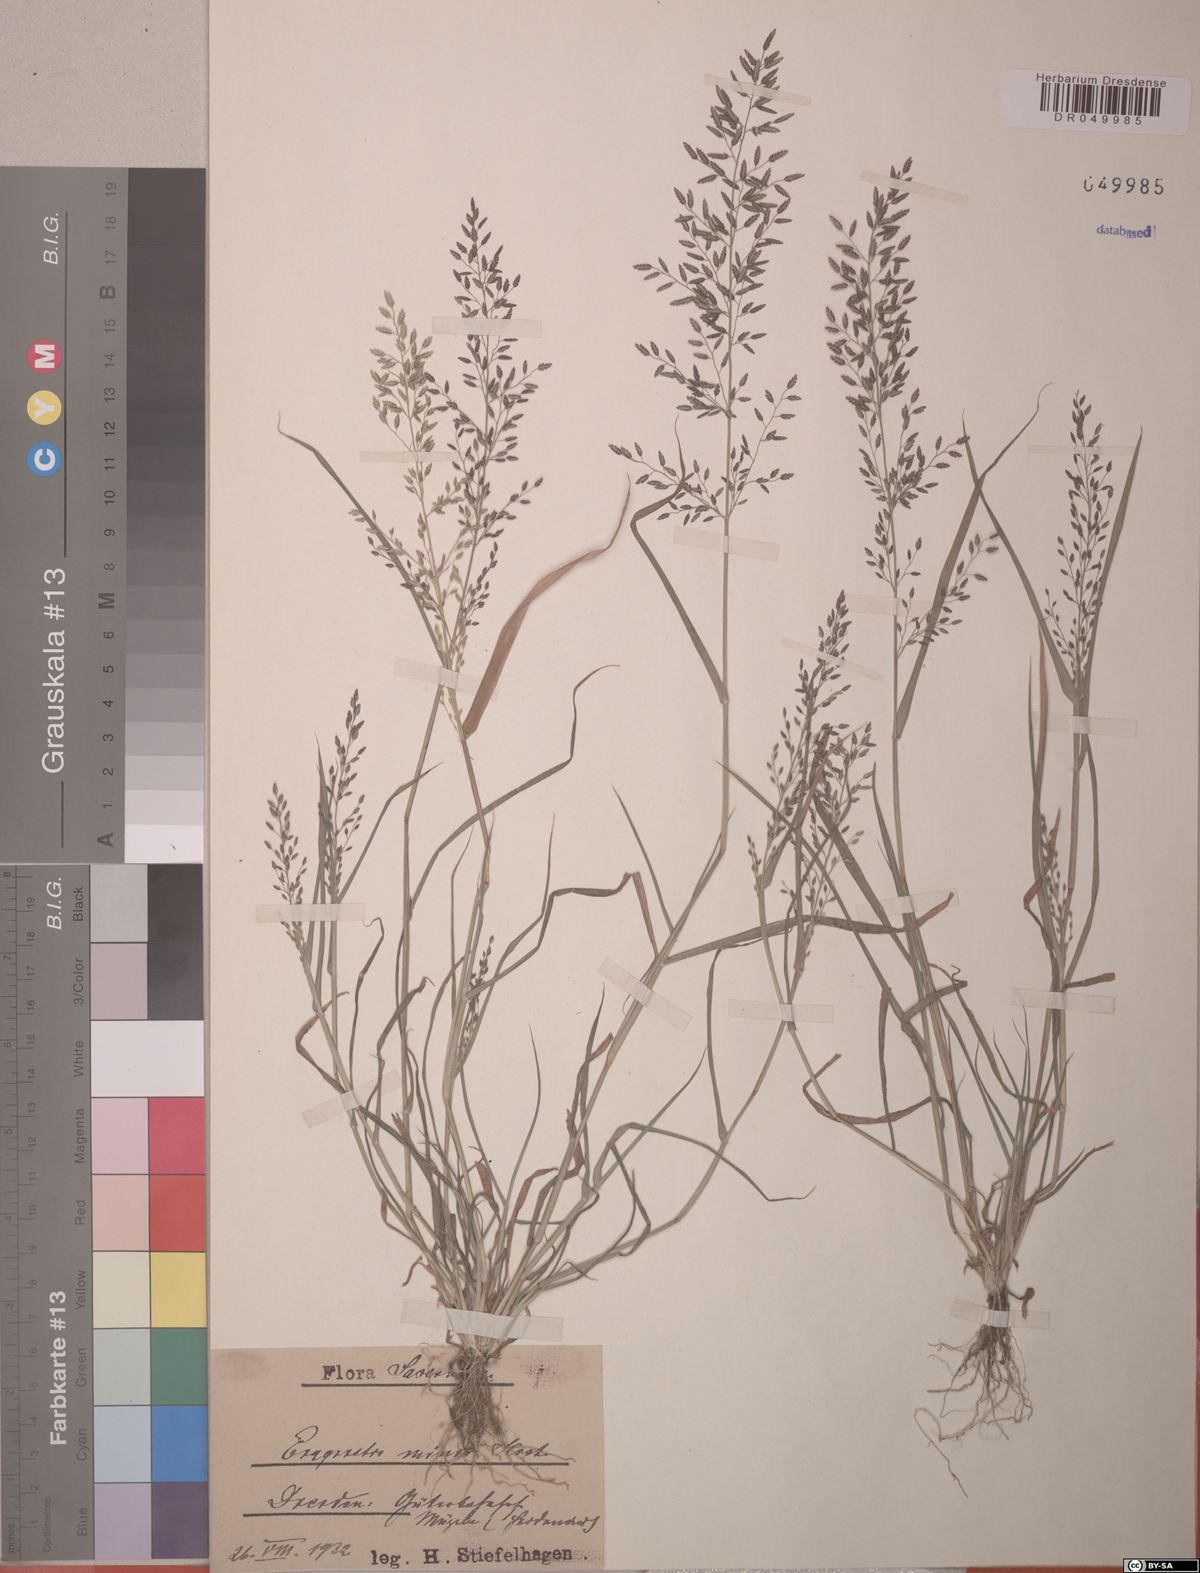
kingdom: Plantae
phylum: Tracheophyta
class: Liliopsida
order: Poales
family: Poaceae
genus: Eragrostis
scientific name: Eragrostis minor
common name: Small love-grass
